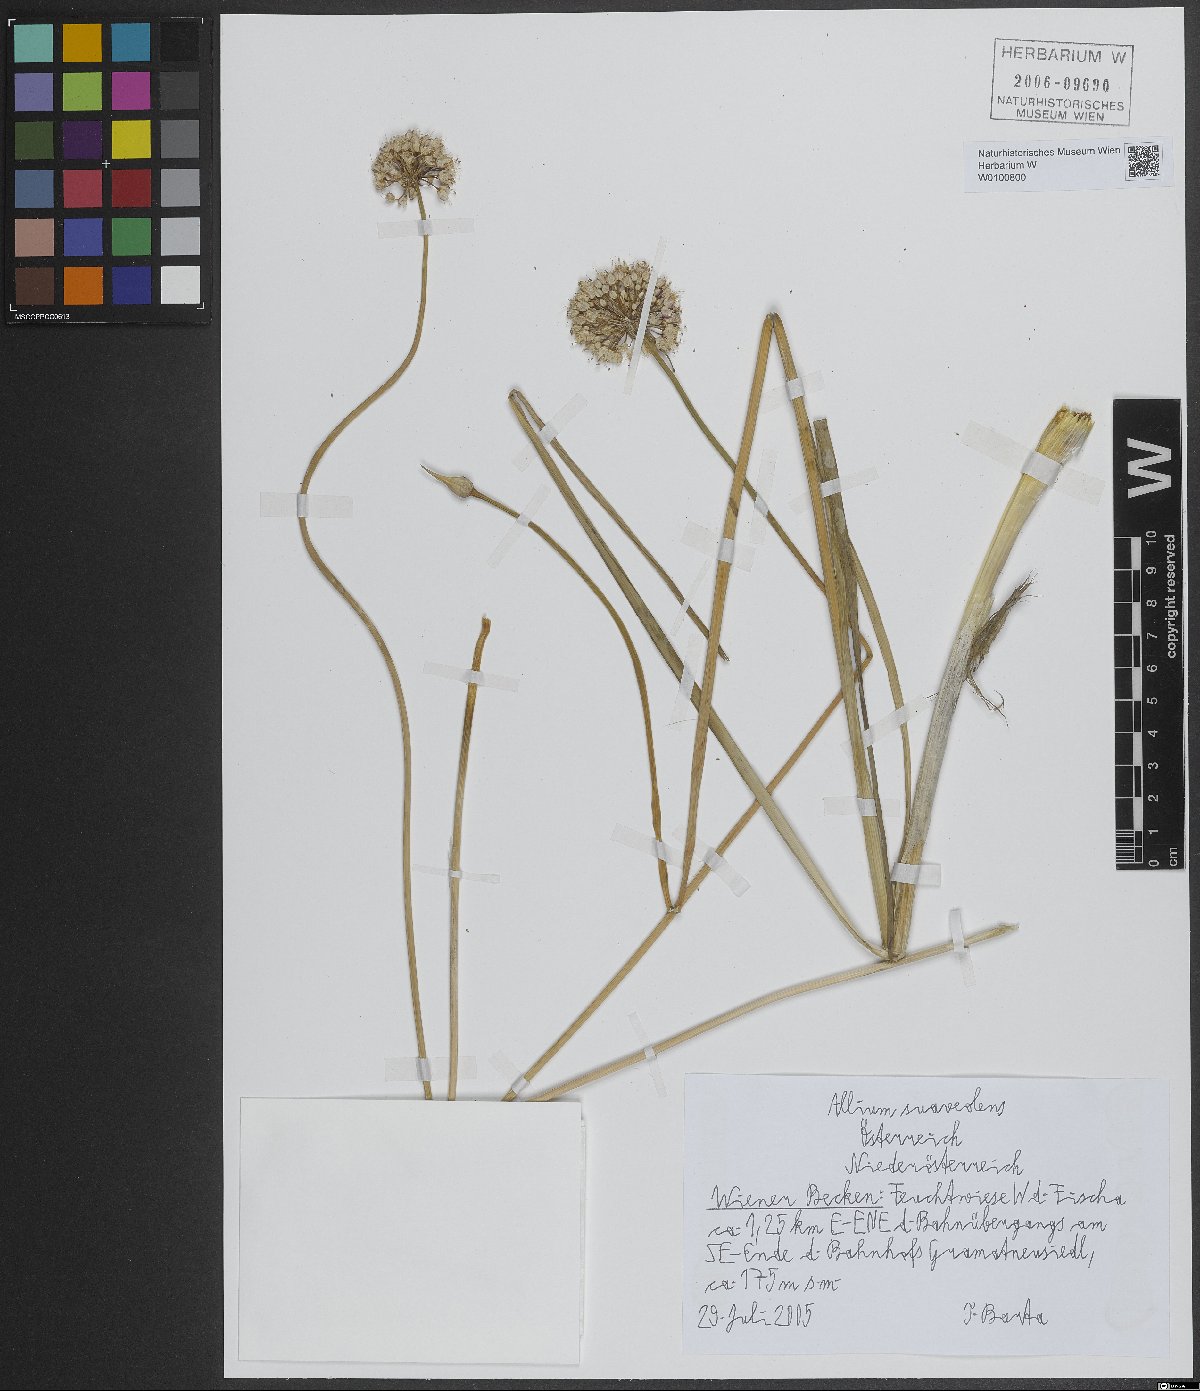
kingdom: Plantae
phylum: Tracheophyta
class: Liliopsida
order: Asparagales
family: Amaryllidaceae
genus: Allium
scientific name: Allium suaveolens
